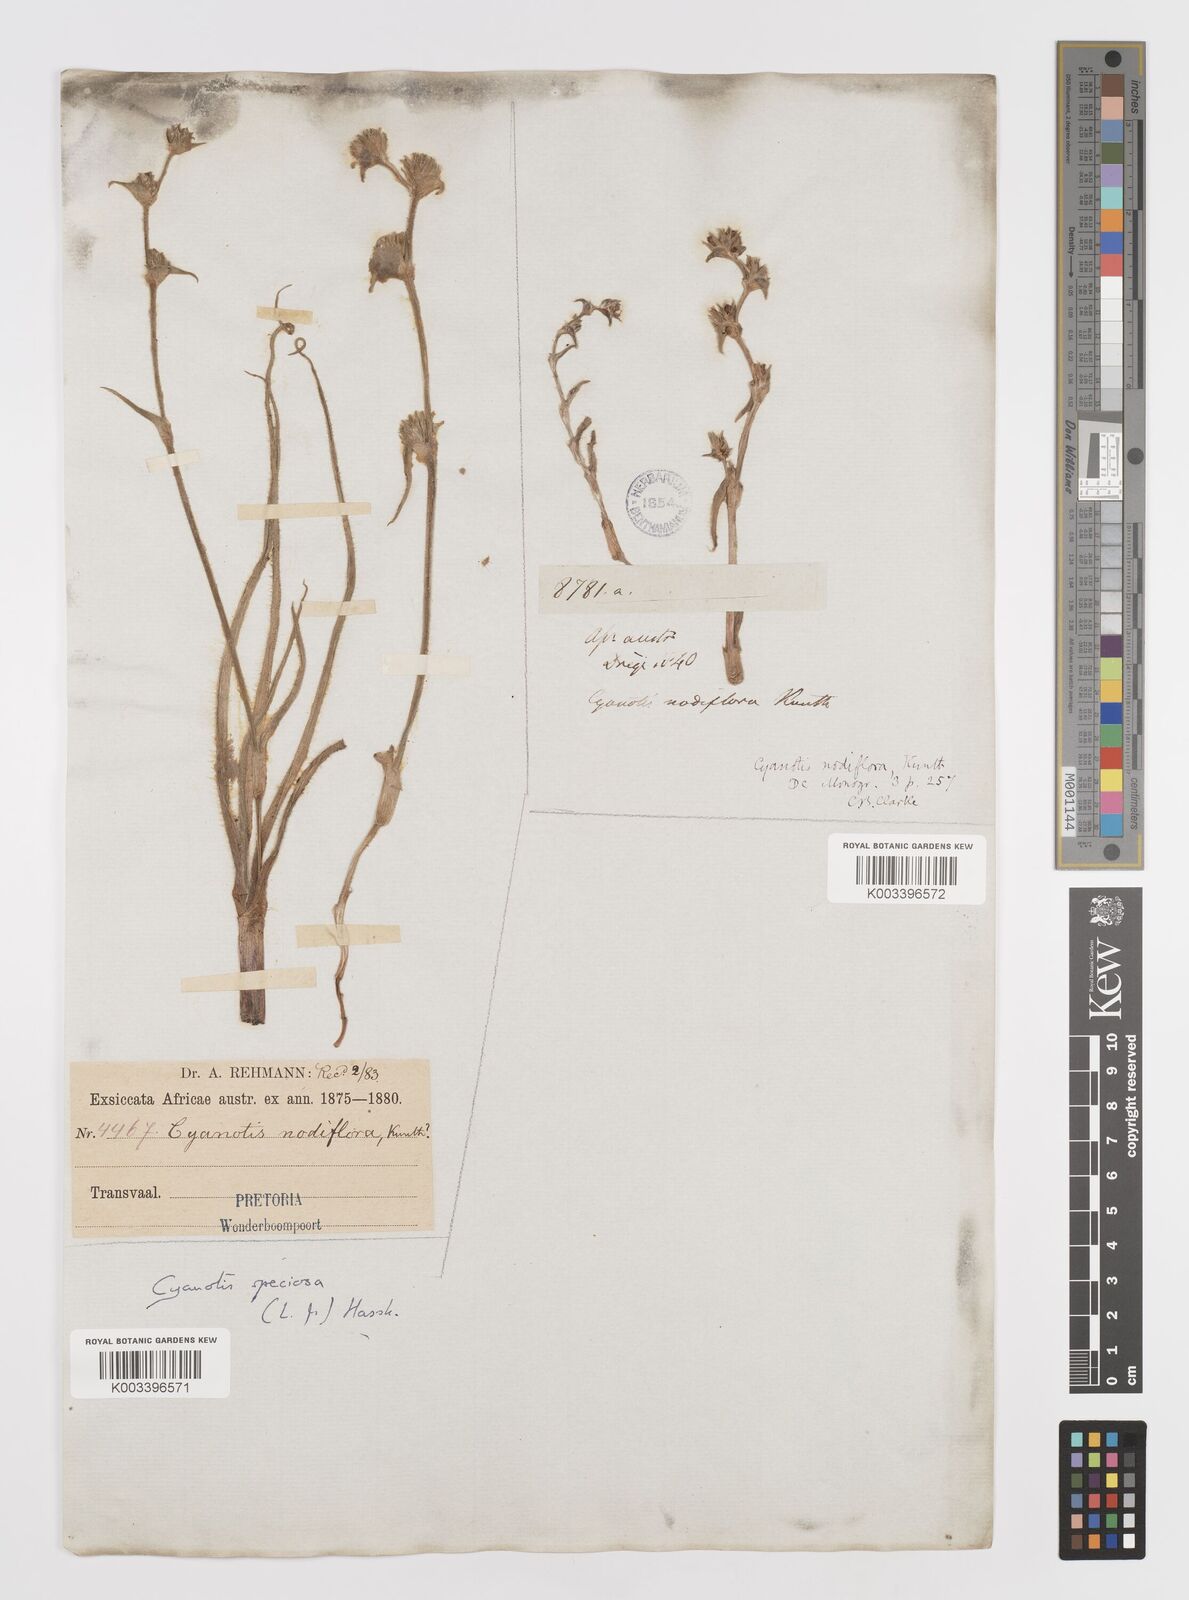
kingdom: Plantae
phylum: Tracheophyta
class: Liliopsida
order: Commelinales
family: Commelinaceae
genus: Cyanotis
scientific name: Cyanotis speciosa
